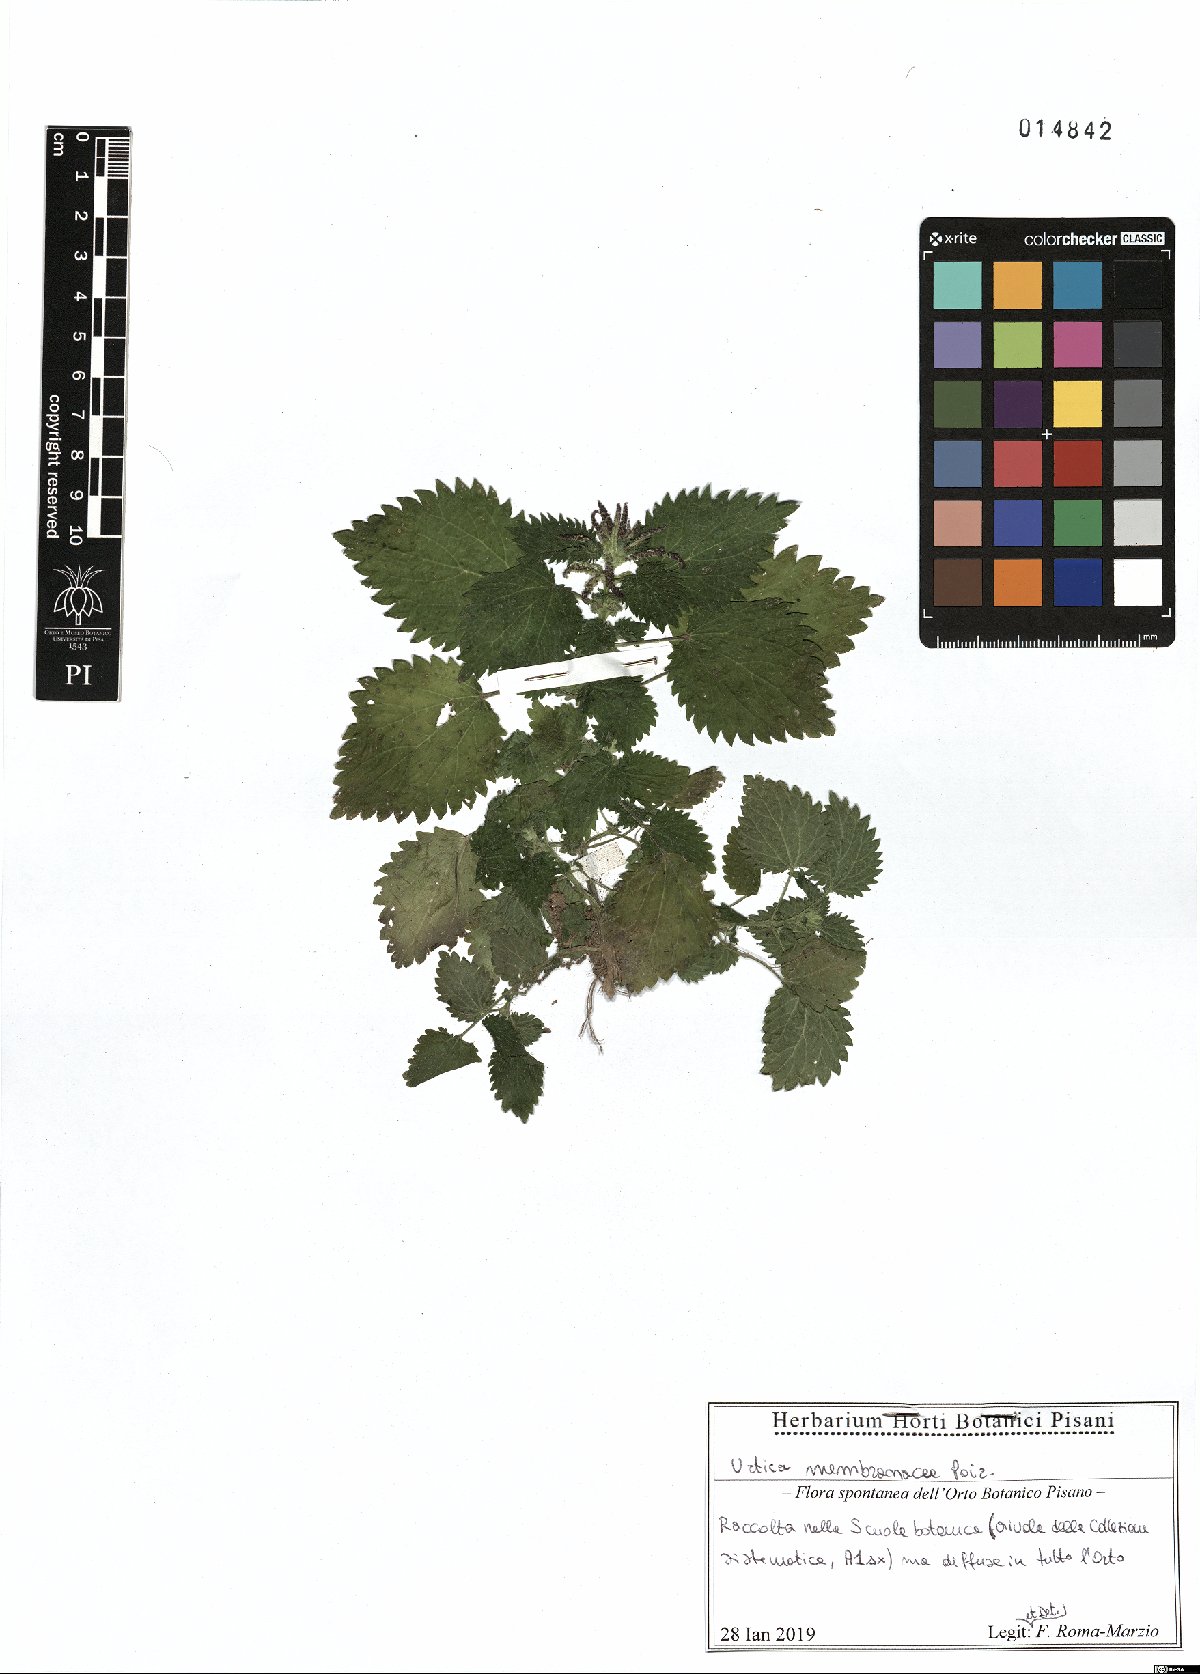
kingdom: Plantae
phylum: Tracheophyta
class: Magnoliopsida
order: Rosales
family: Urticaceae
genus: Urtica
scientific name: Urtica membranacea
